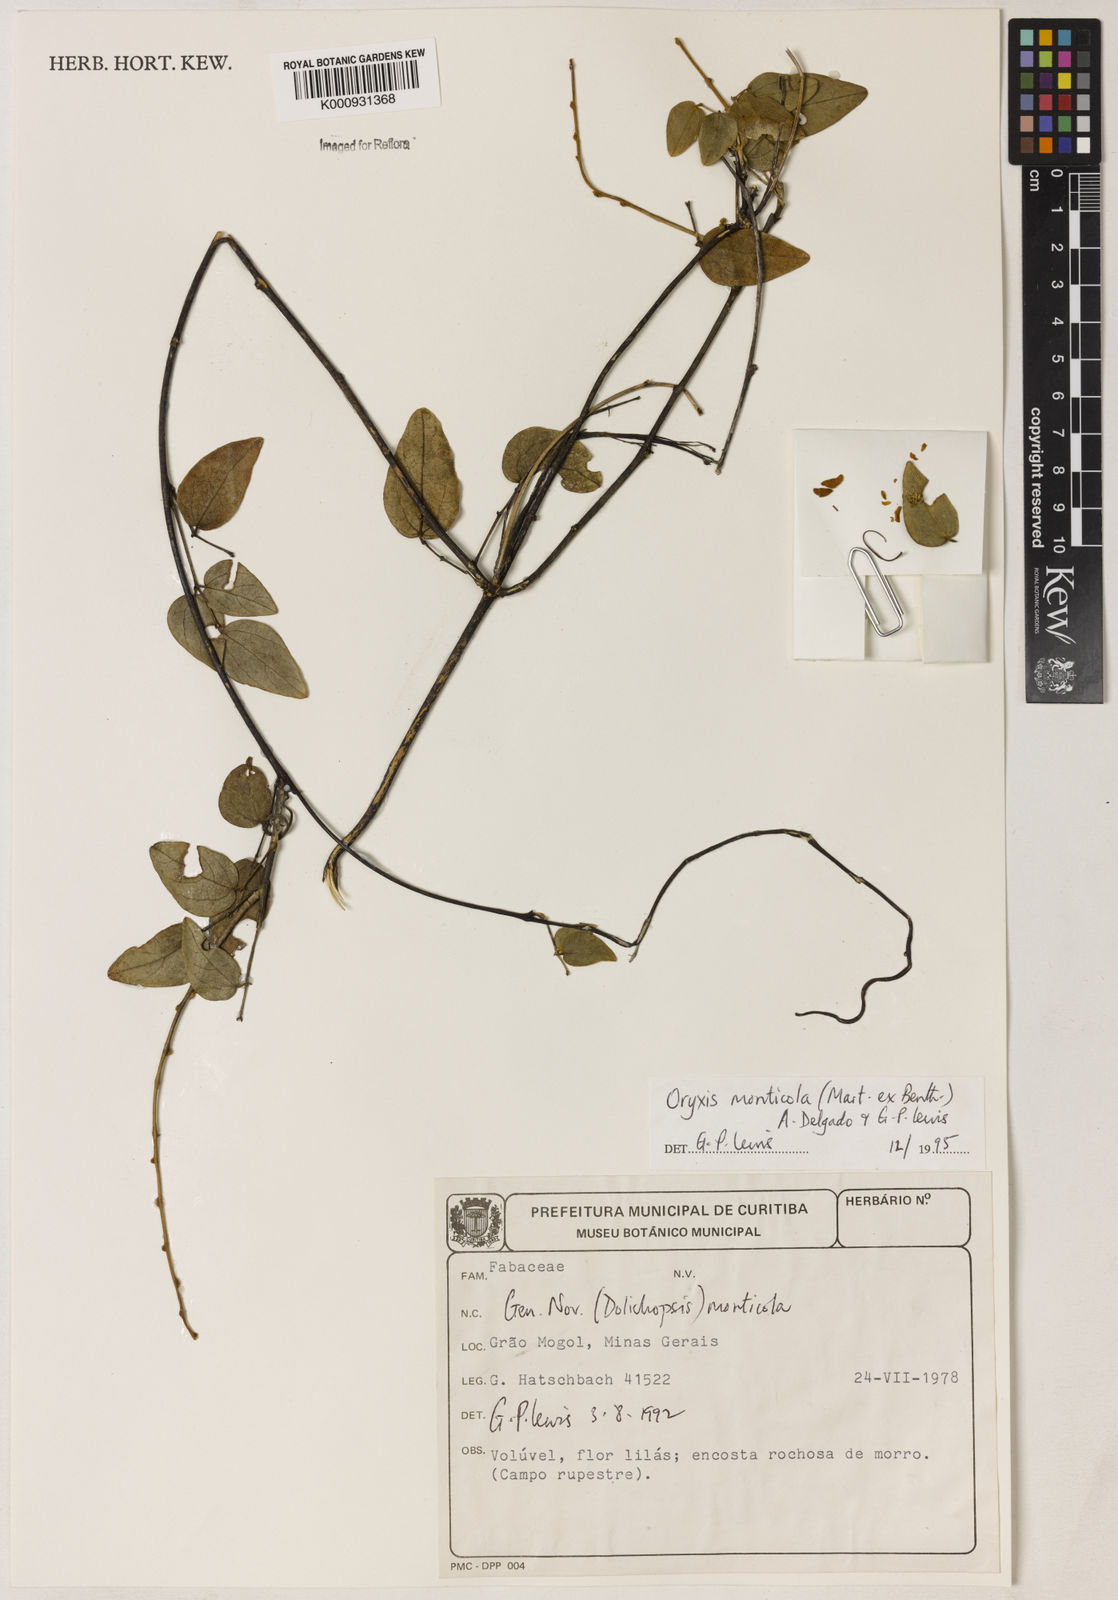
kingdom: Plantae
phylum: Tracheophyta
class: Magnoliopsida
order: Fabales
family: Fabaceae
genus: Dolichopsis
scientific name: Dolichopsis monticola
